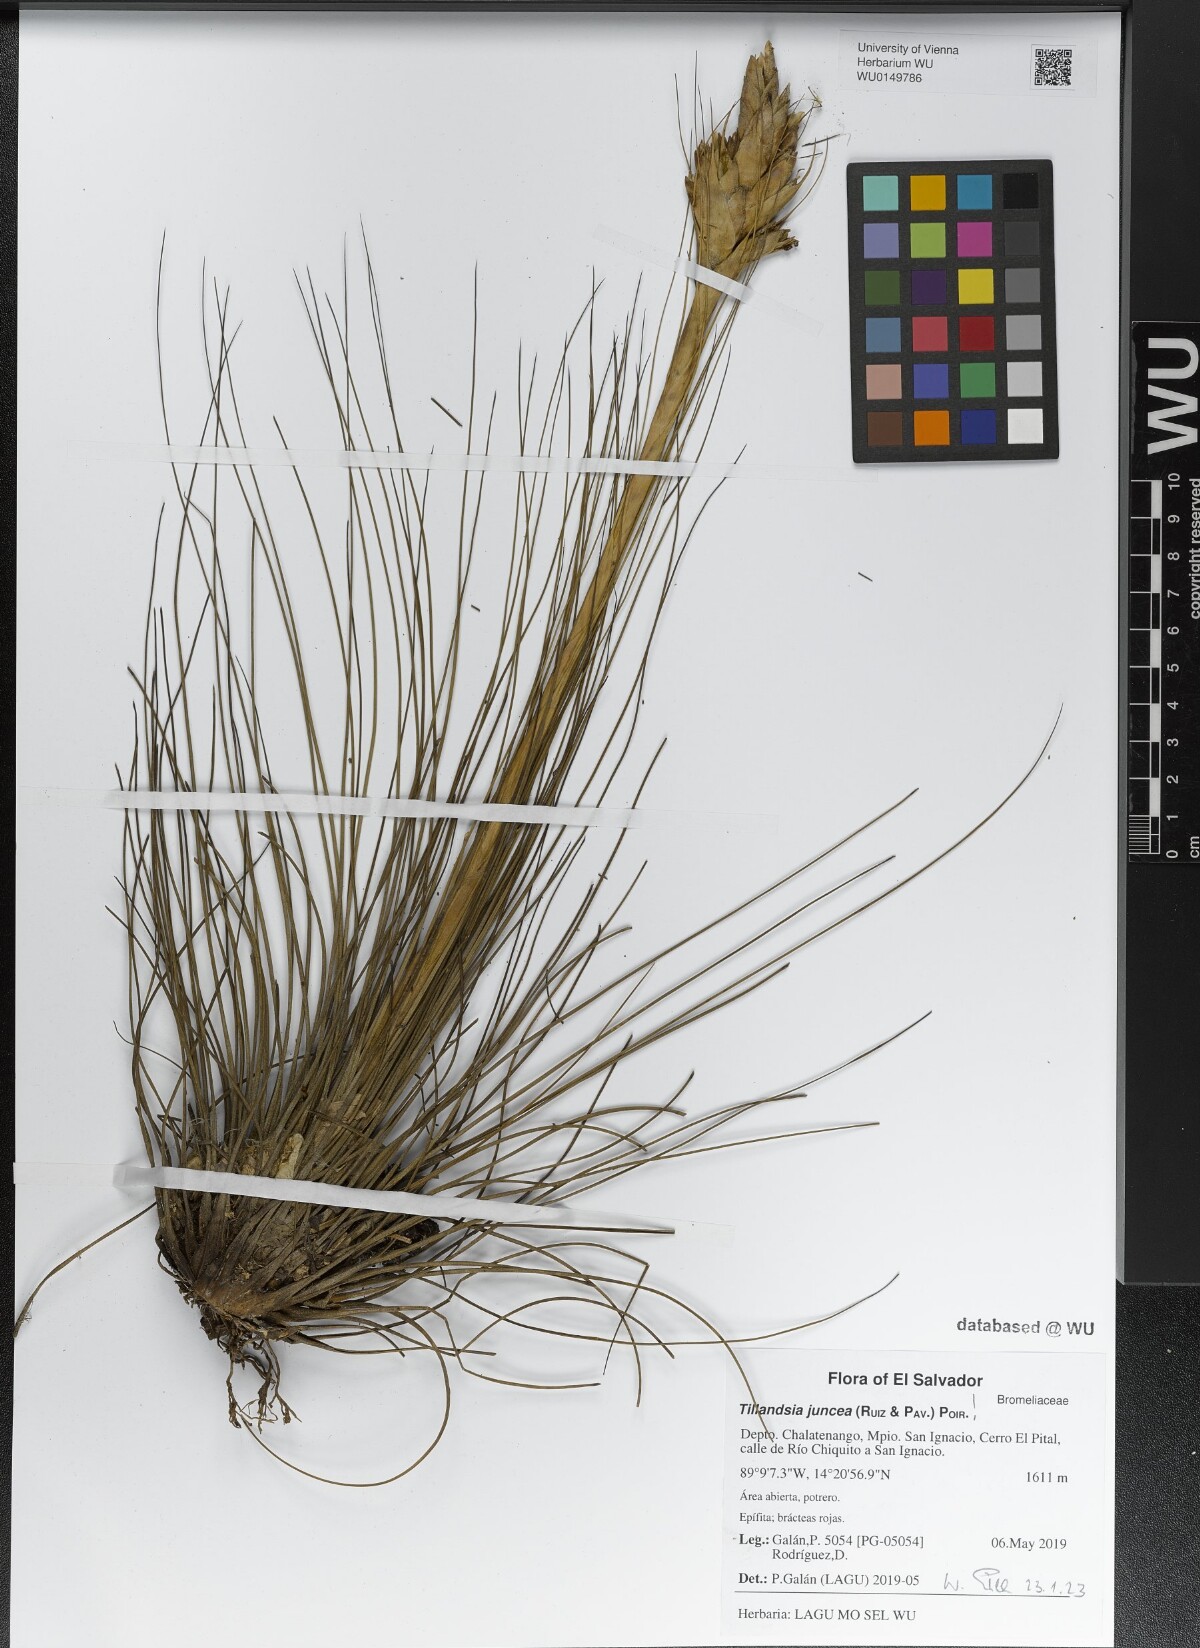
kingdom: Plantae
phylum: Tracheophyta
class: Liliopsida
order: Poales
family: Bromeliaceae
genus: Tillandsia
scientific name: Tillandsia juncea
